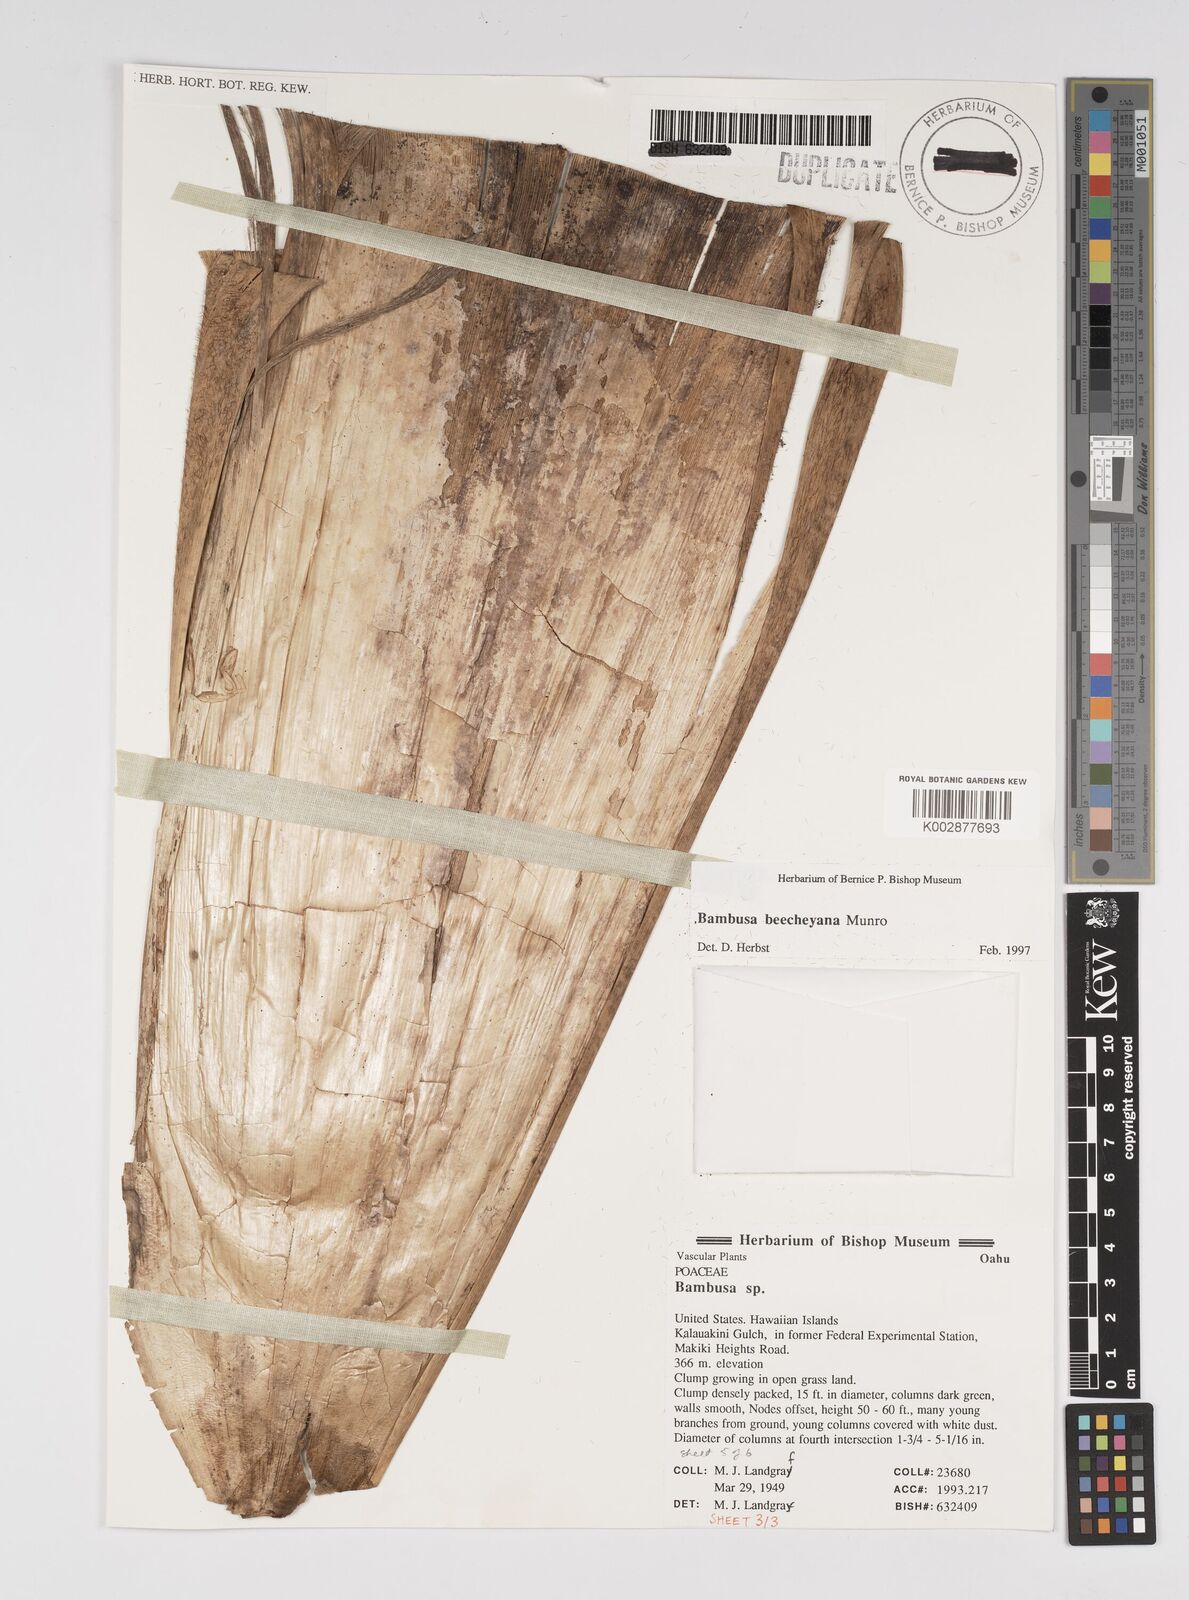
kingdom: Plantae
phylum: Tracheophyta
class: Liliopsida
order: Poales
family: Poaceae
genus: Bambusa
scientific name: Bambusa beecheyana
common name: Beechey's bamboo
